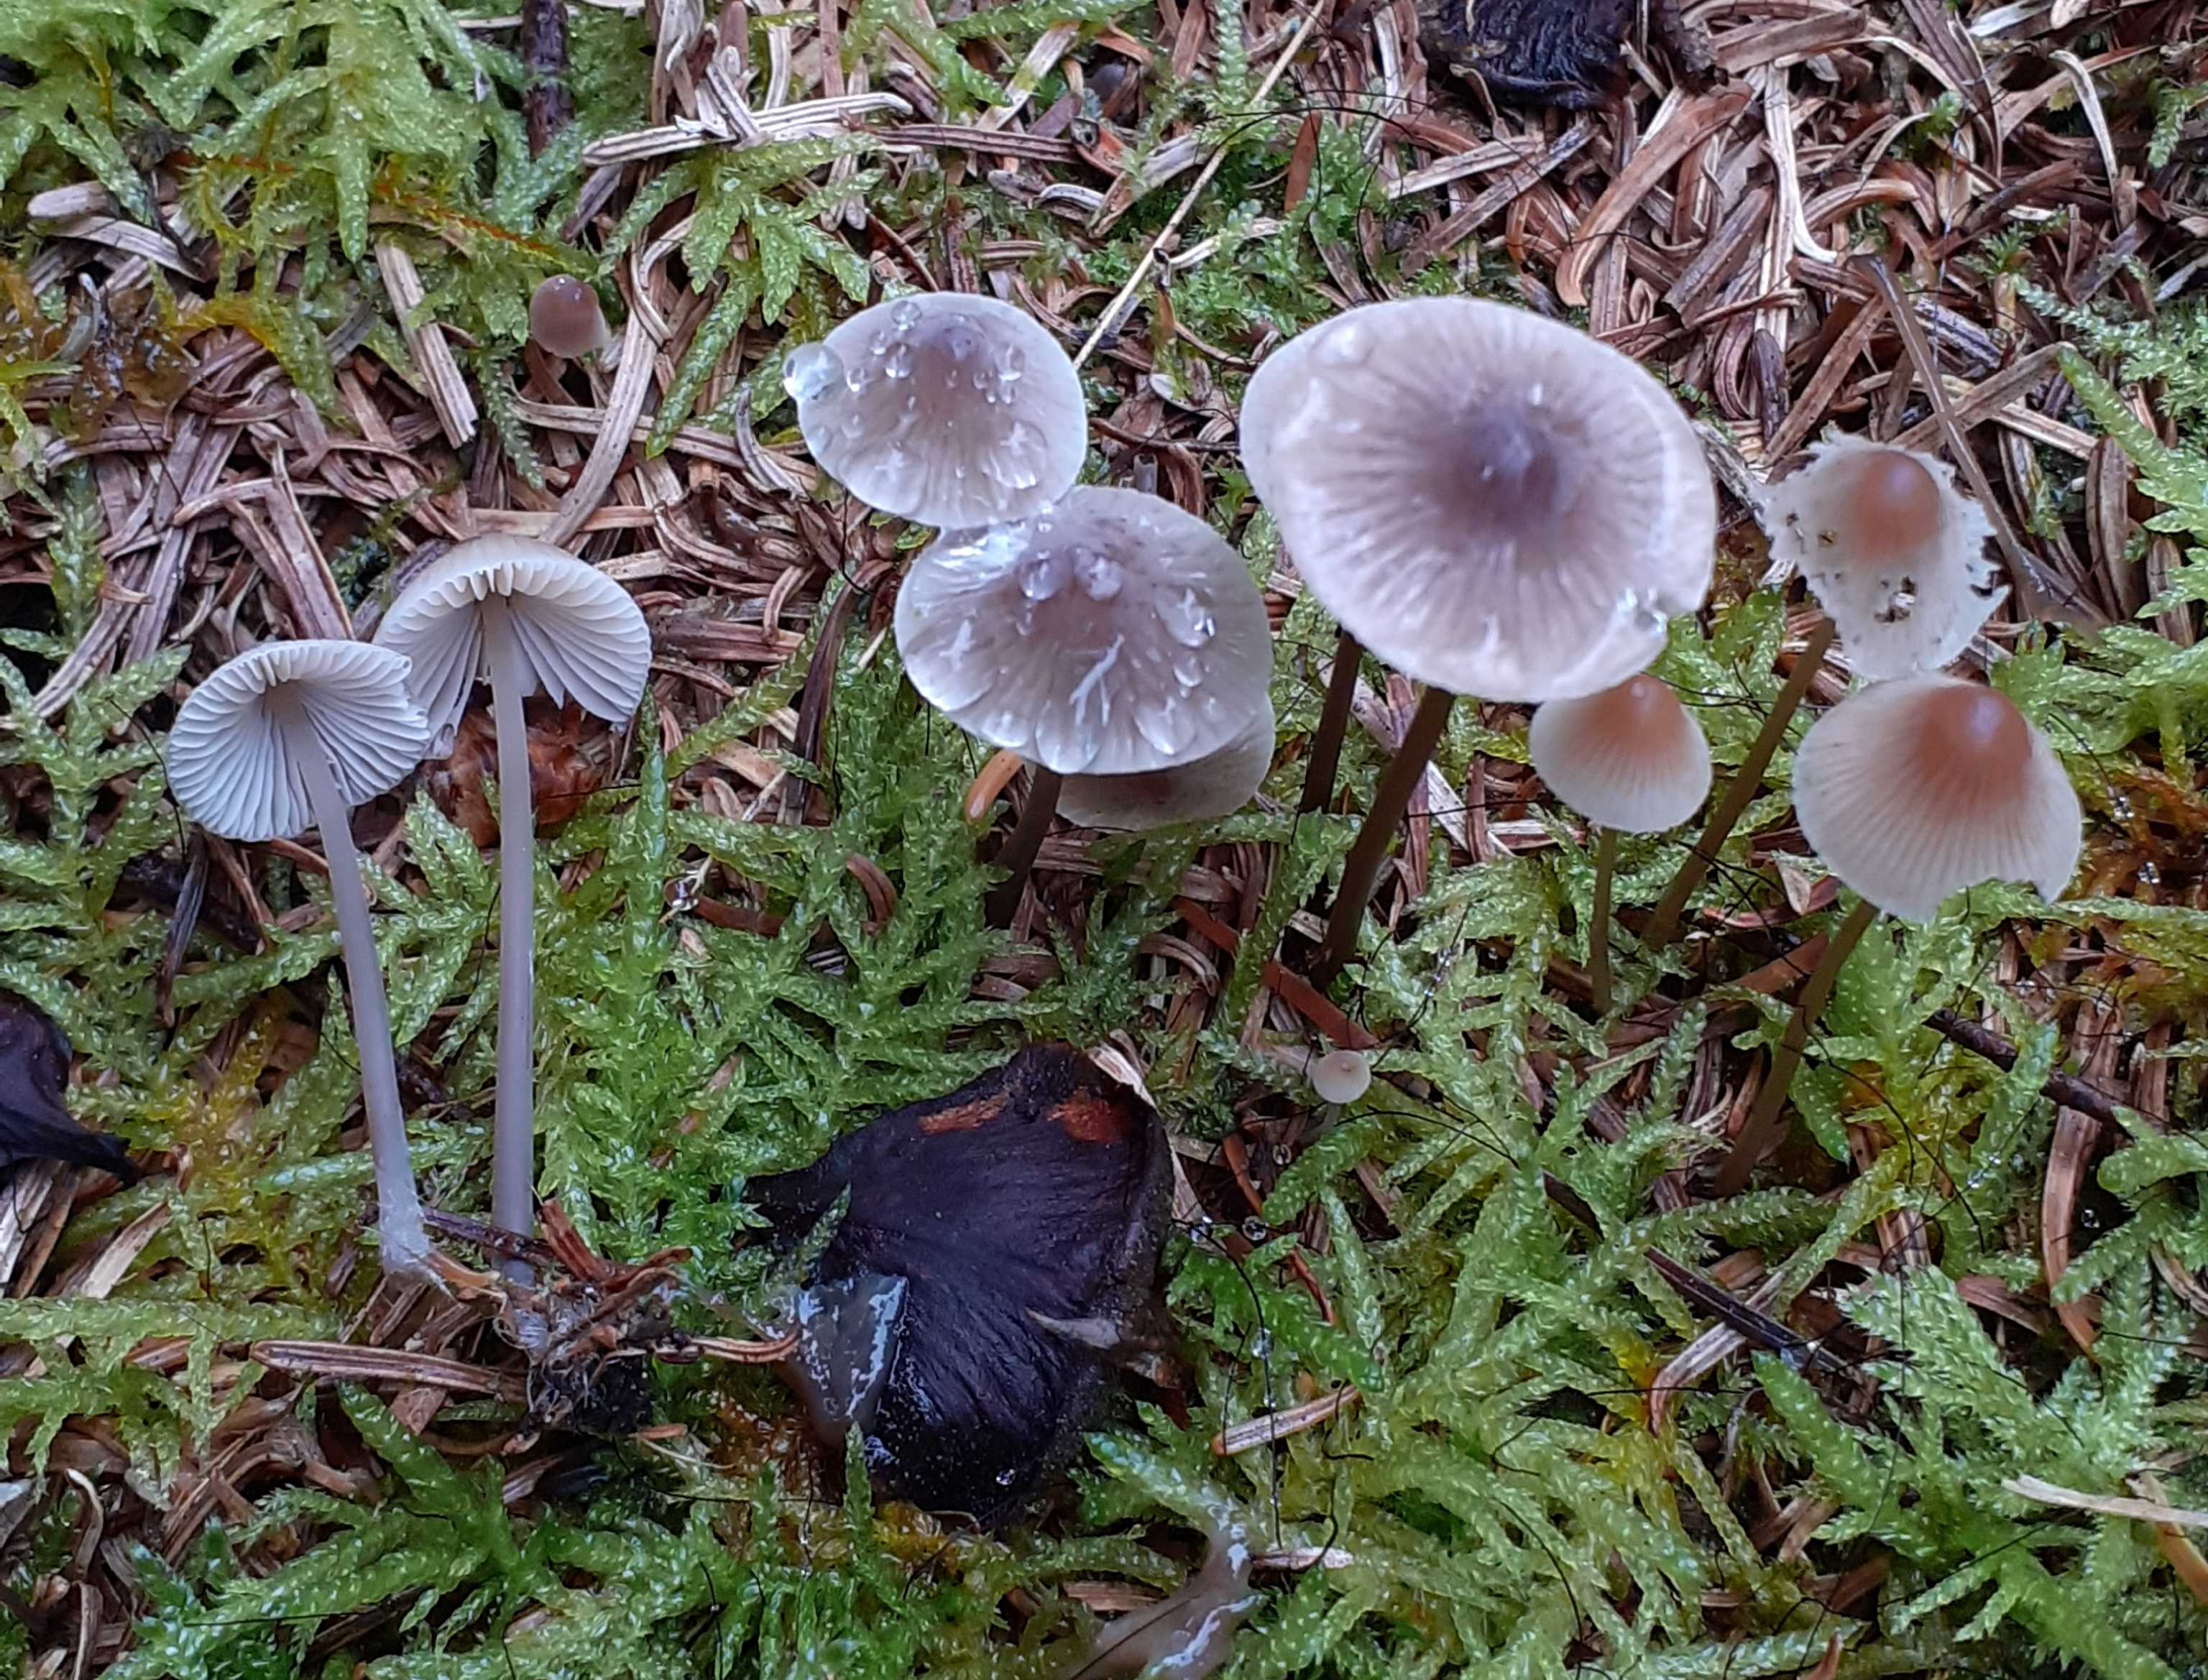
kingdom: Fungi
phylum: Basidiomycota
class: Agaricomycetes
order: Agaricales
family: Mycenaceae
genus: Mycena
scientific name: Mycena metata
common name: rødlig huesvamp
